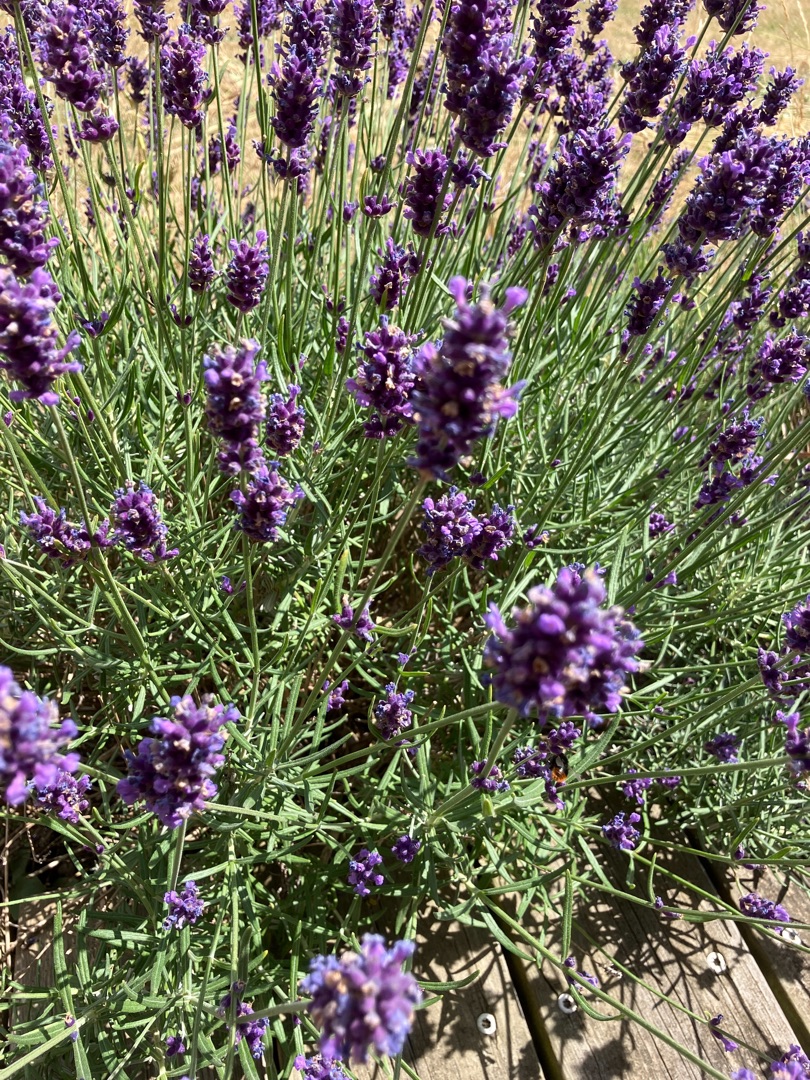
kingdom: Plantae
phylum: Tracheophyta
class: Magnoliopsida
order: Lamiales
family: Lamiaceae
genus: Lavandula
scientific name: Lavandula angustifolia
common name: Ægte lavendel
